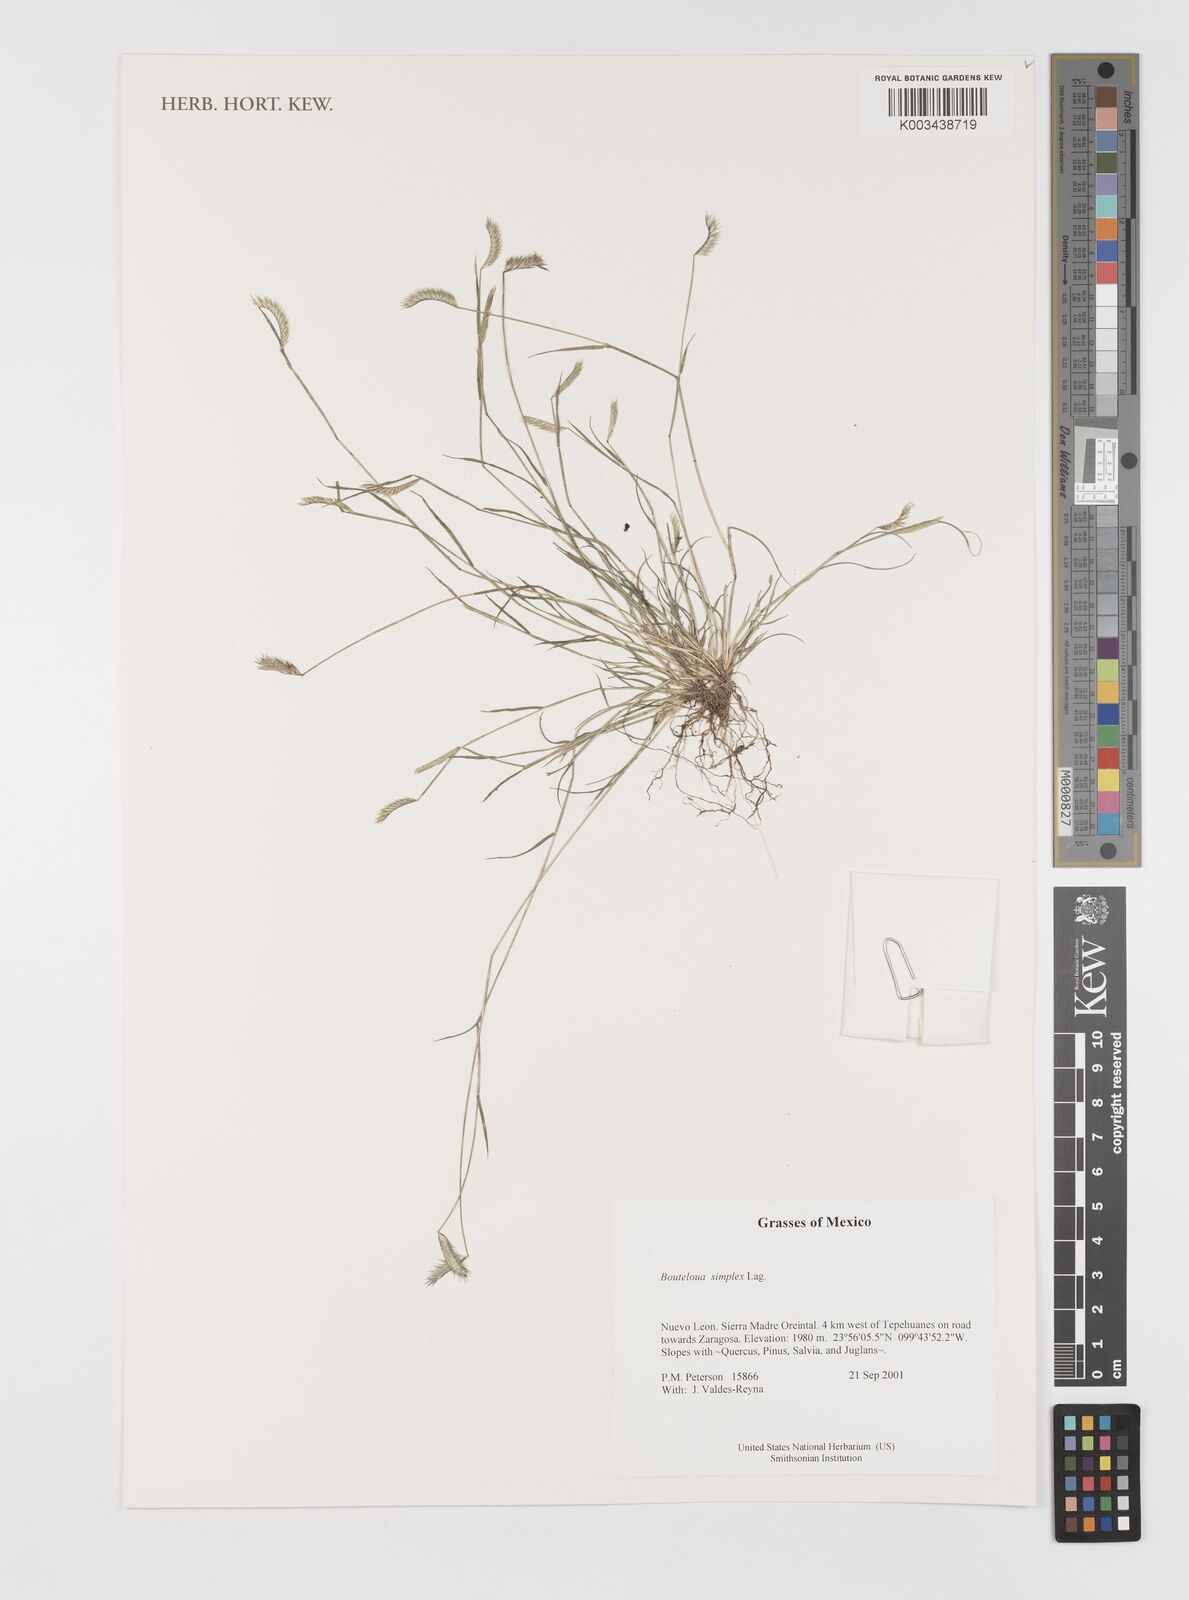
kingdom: Plantae
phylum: Tracheophyta
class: Liliopsida
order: Poales
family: Poaceae
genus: Bouteloua
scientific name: Bouteloua simplex
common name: Mat grama
